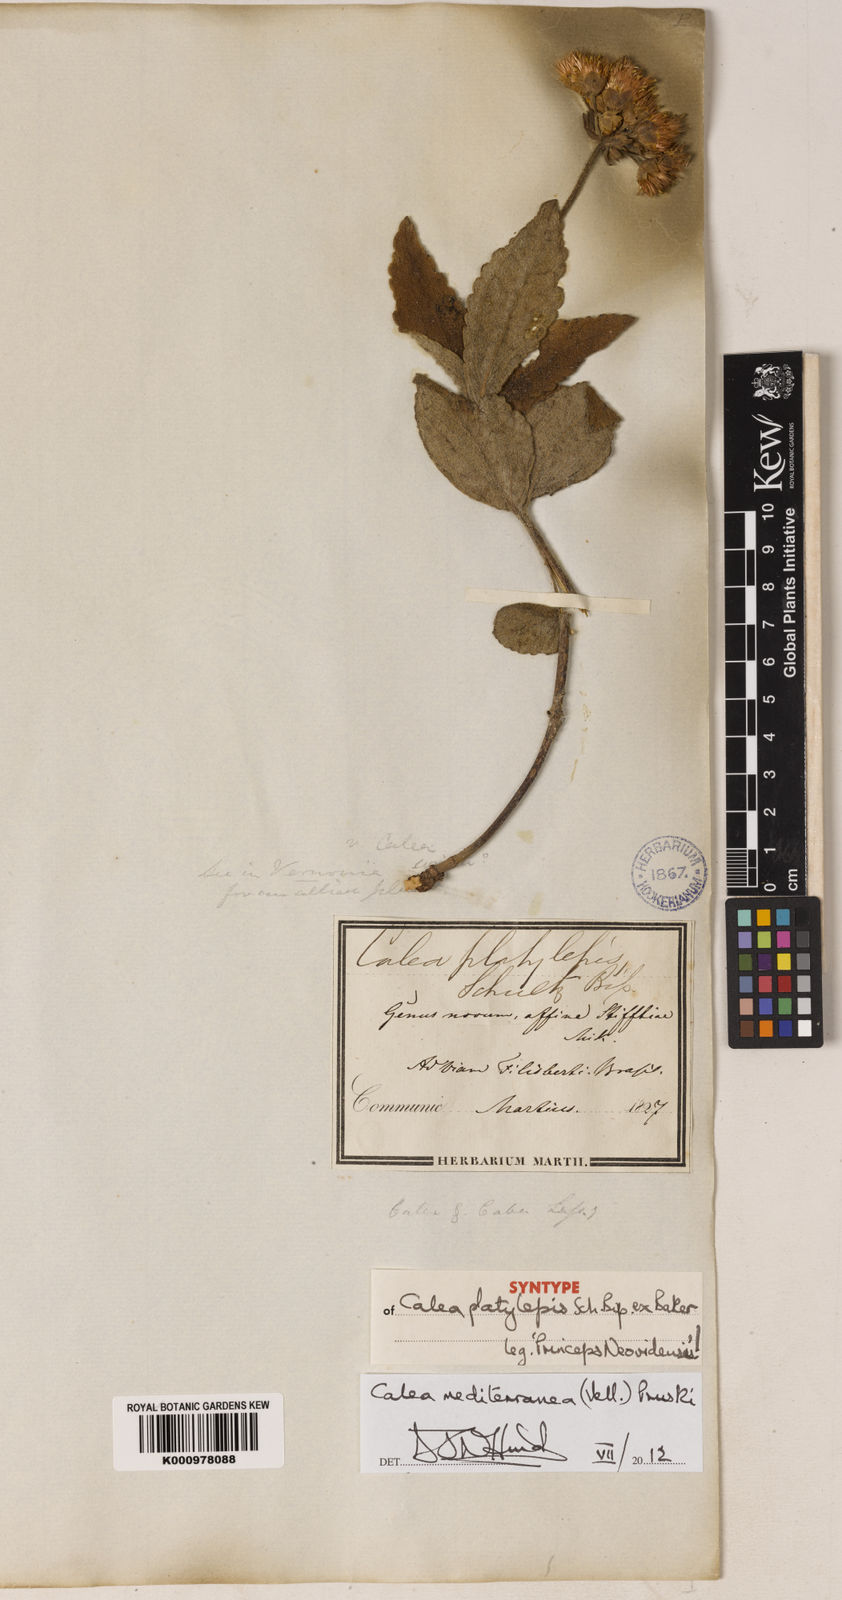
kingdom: Plantae
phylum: Tracheophyta
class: Magnoliopsida
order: Asterales
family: Asteraceae
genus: Calea
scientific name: Calea mediterranea
